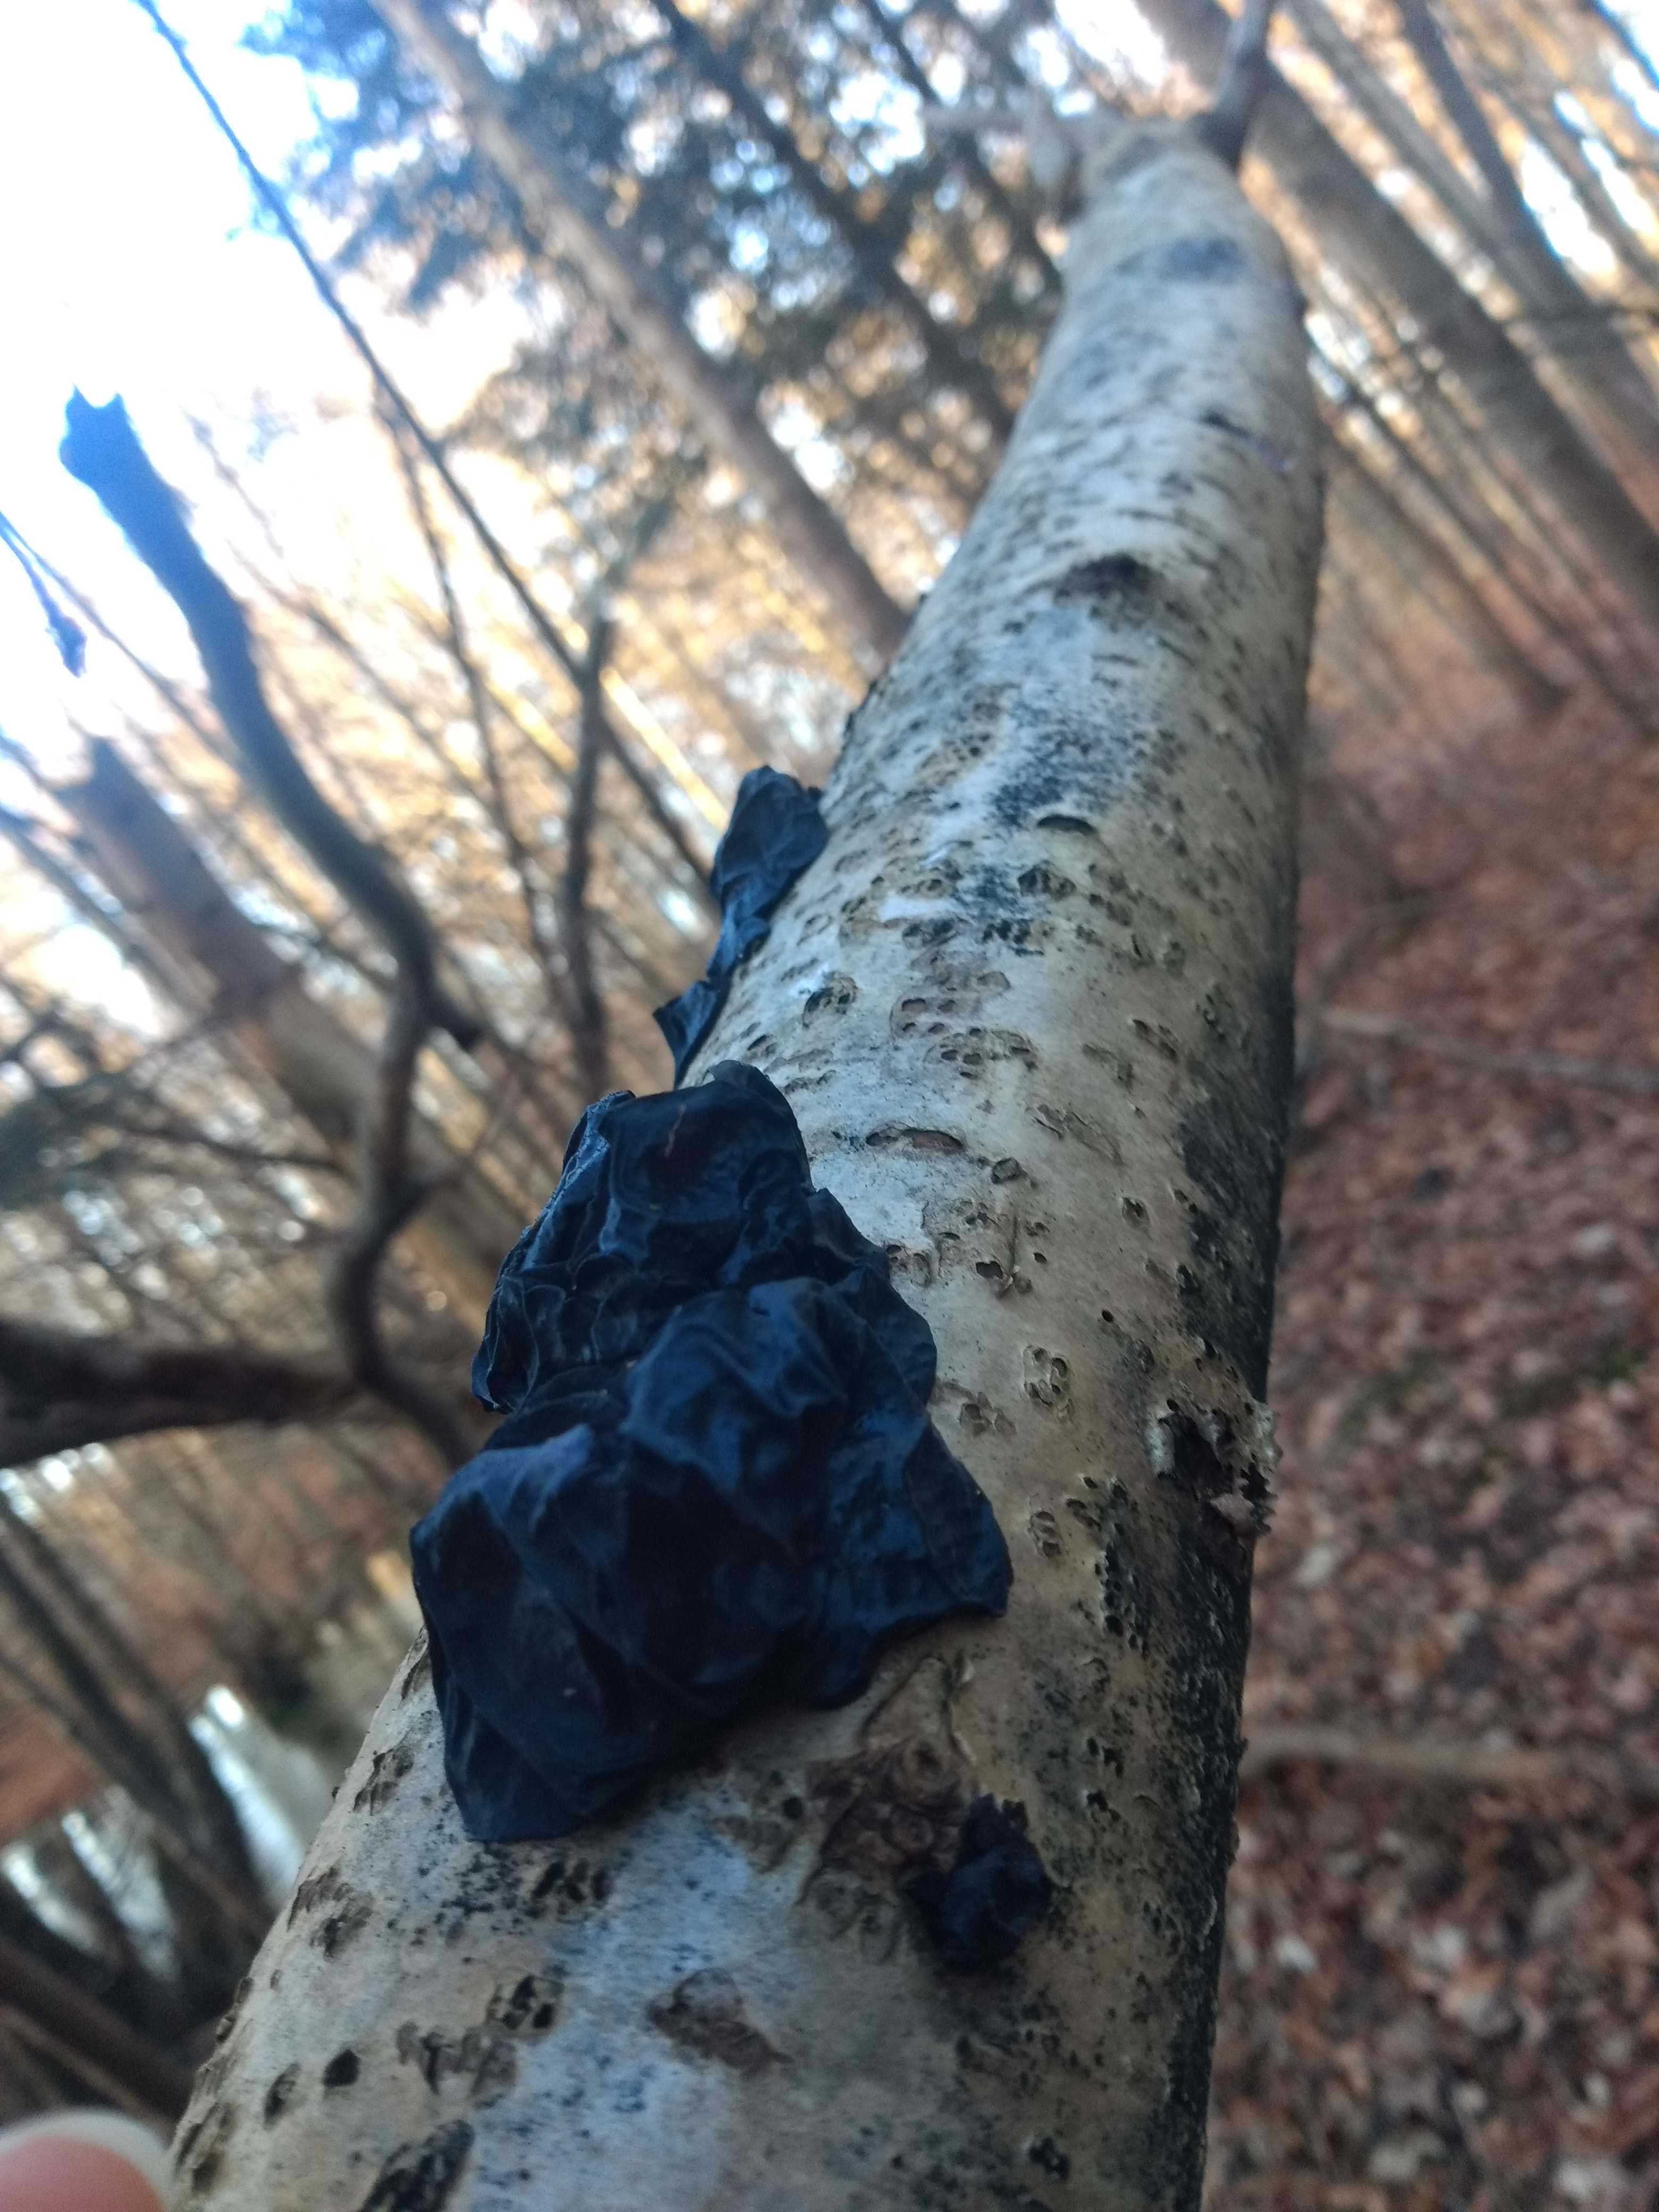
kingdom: Fungi
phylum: Basidiomycota
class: Agaricomycetes
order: Auriculariales
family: Auriculariaceae
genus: Exidia
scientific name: Exidia glandulosa
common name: ege-bævretop
